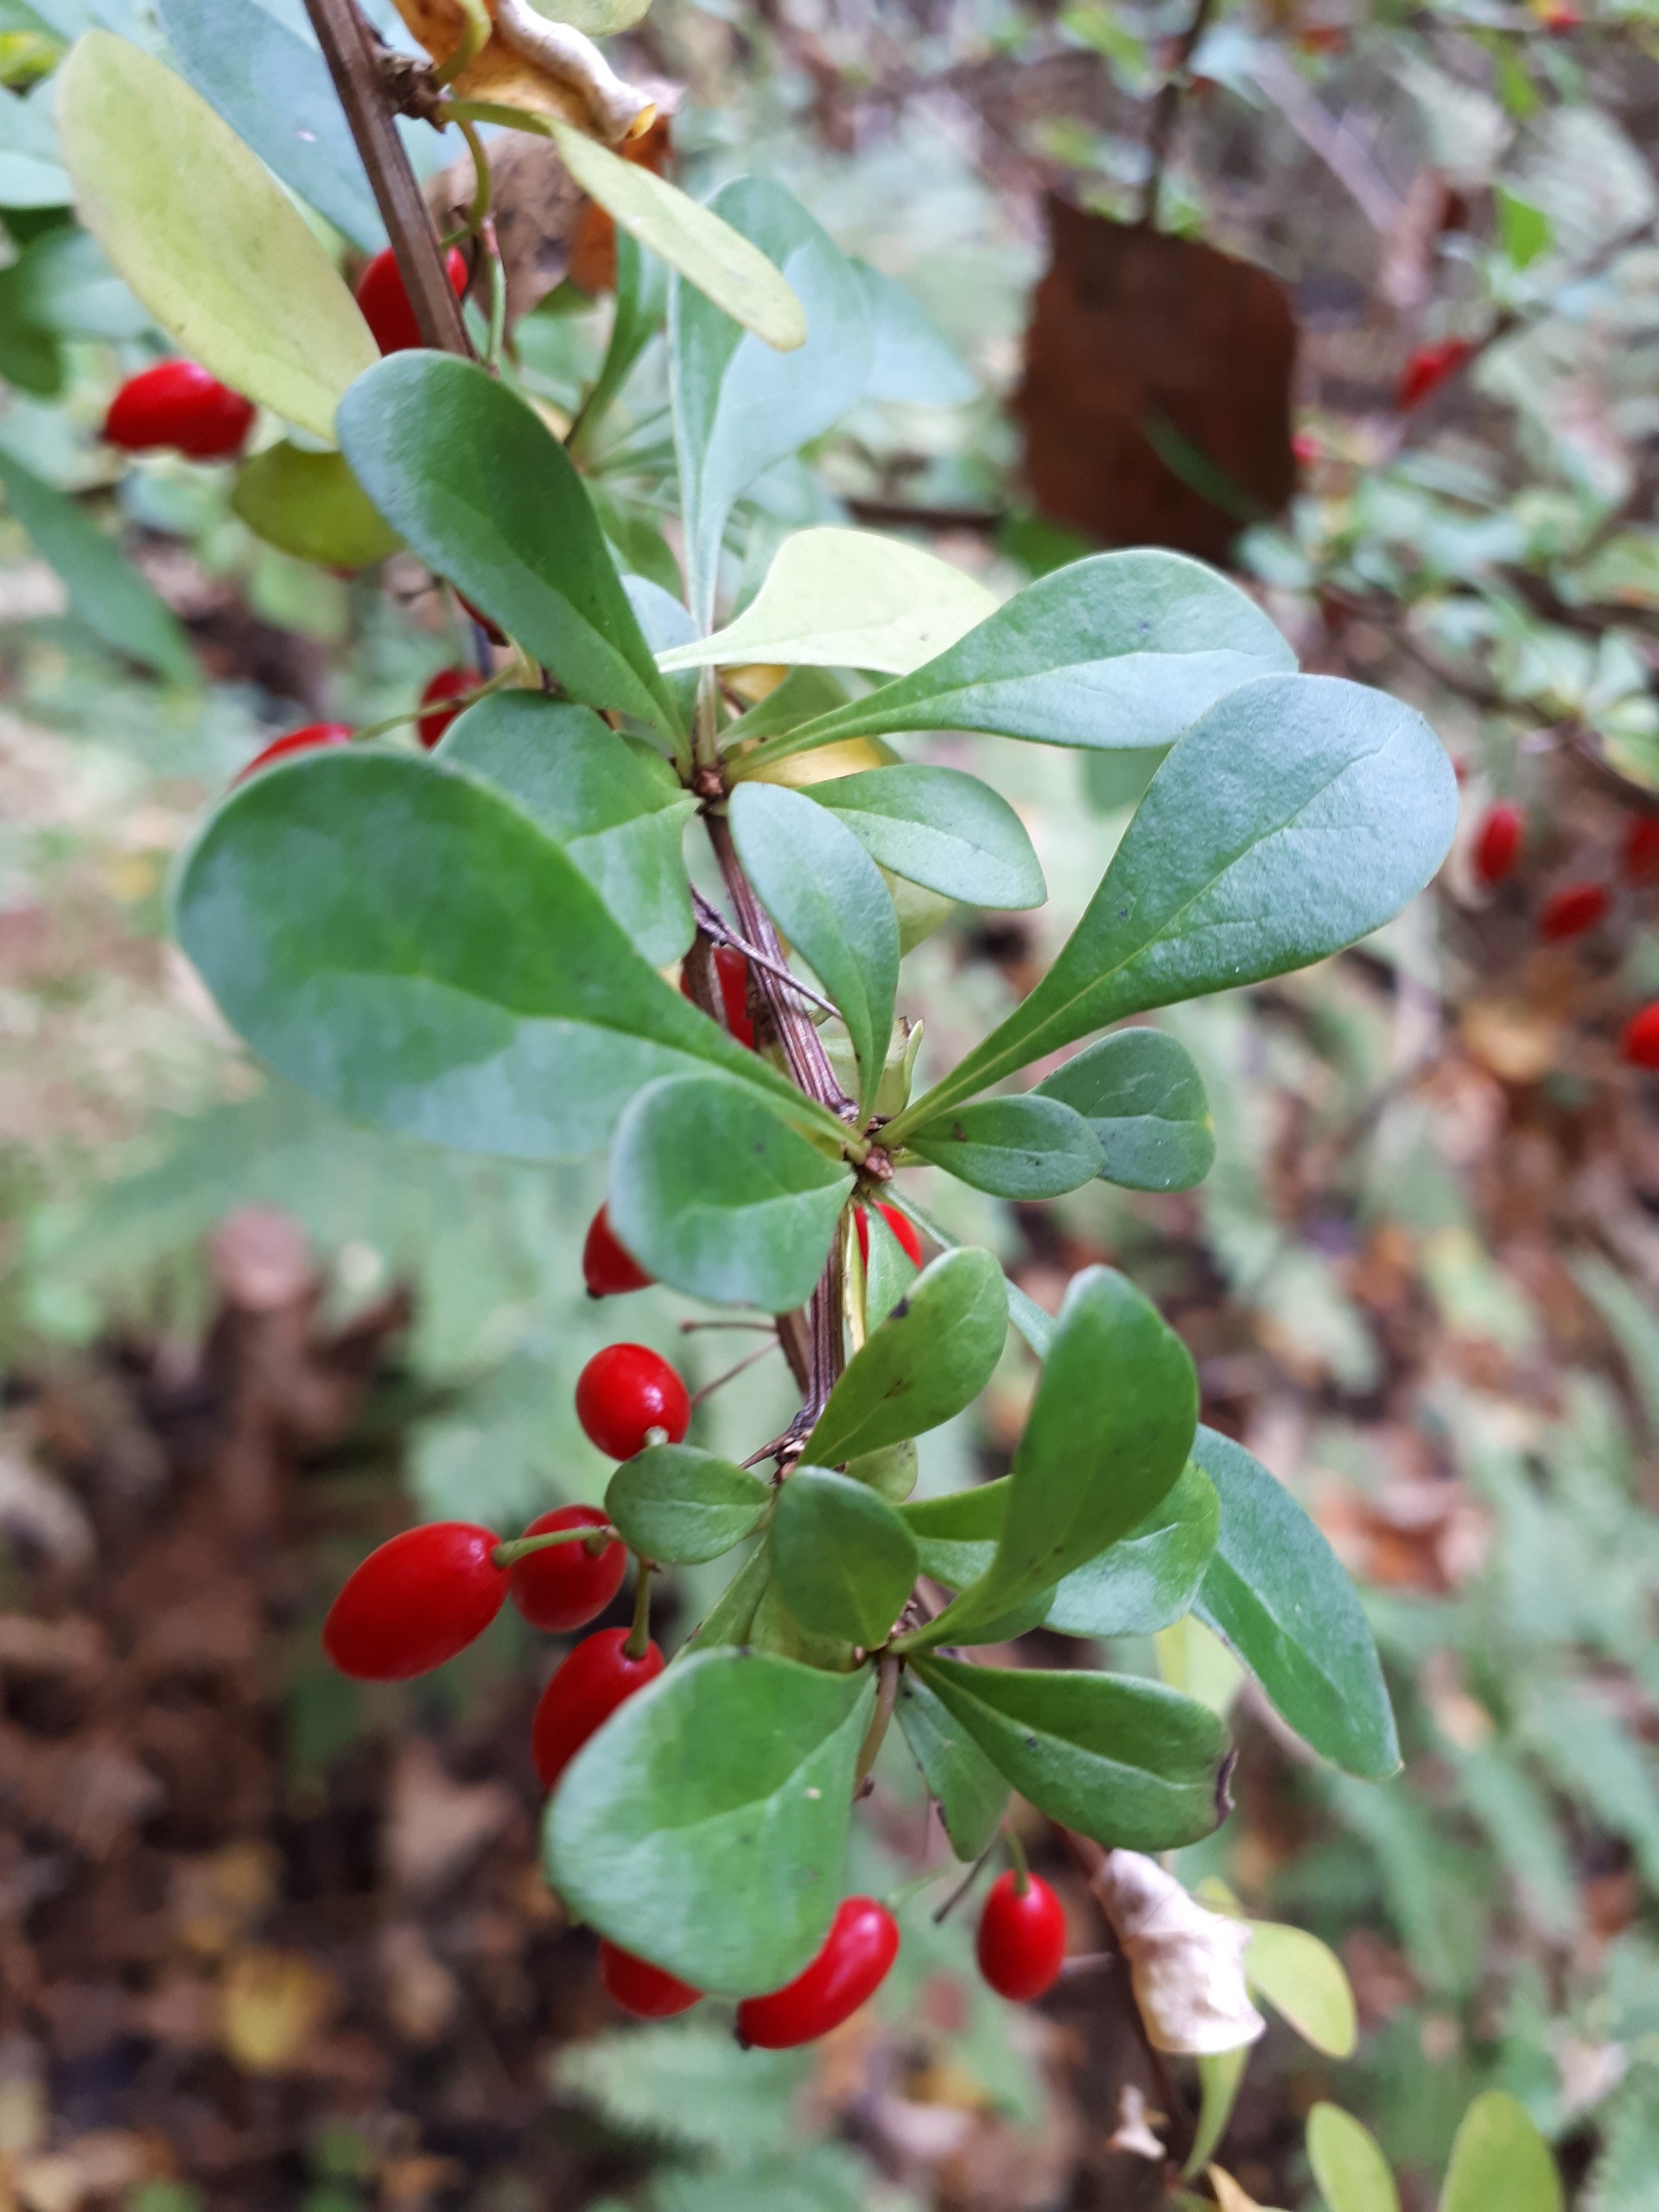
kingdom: Plantae
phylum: Tracheophyta
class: Magnoliopsida
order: Ranunculales
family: Berberidaceae
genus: Berberis
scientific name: Berberis thunbergii
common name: Hæk-berberis
